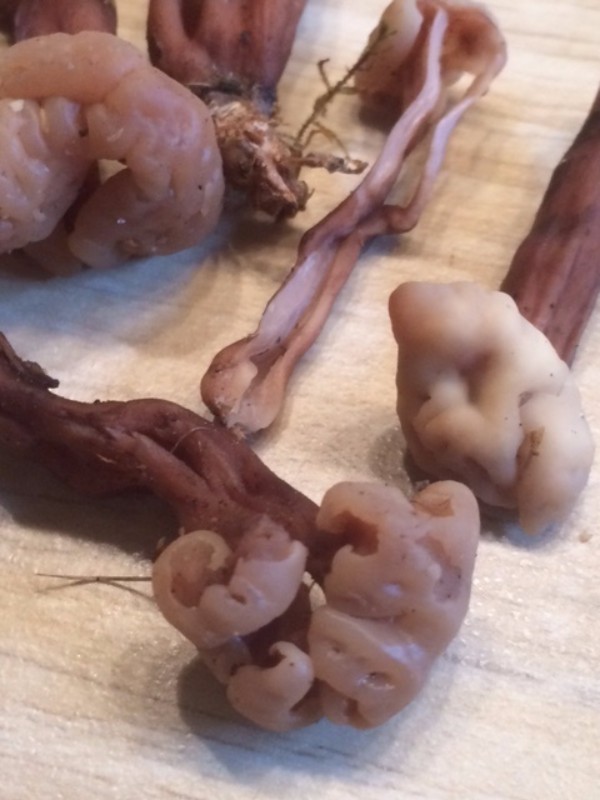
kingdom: Fungi
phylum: Ascomycota
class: Leotiomycetes
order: Rhytismatales
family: Cudoniaceae
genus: Cudonia
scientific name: Cudonia circinans
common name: hekserings-hjelmmorkel
